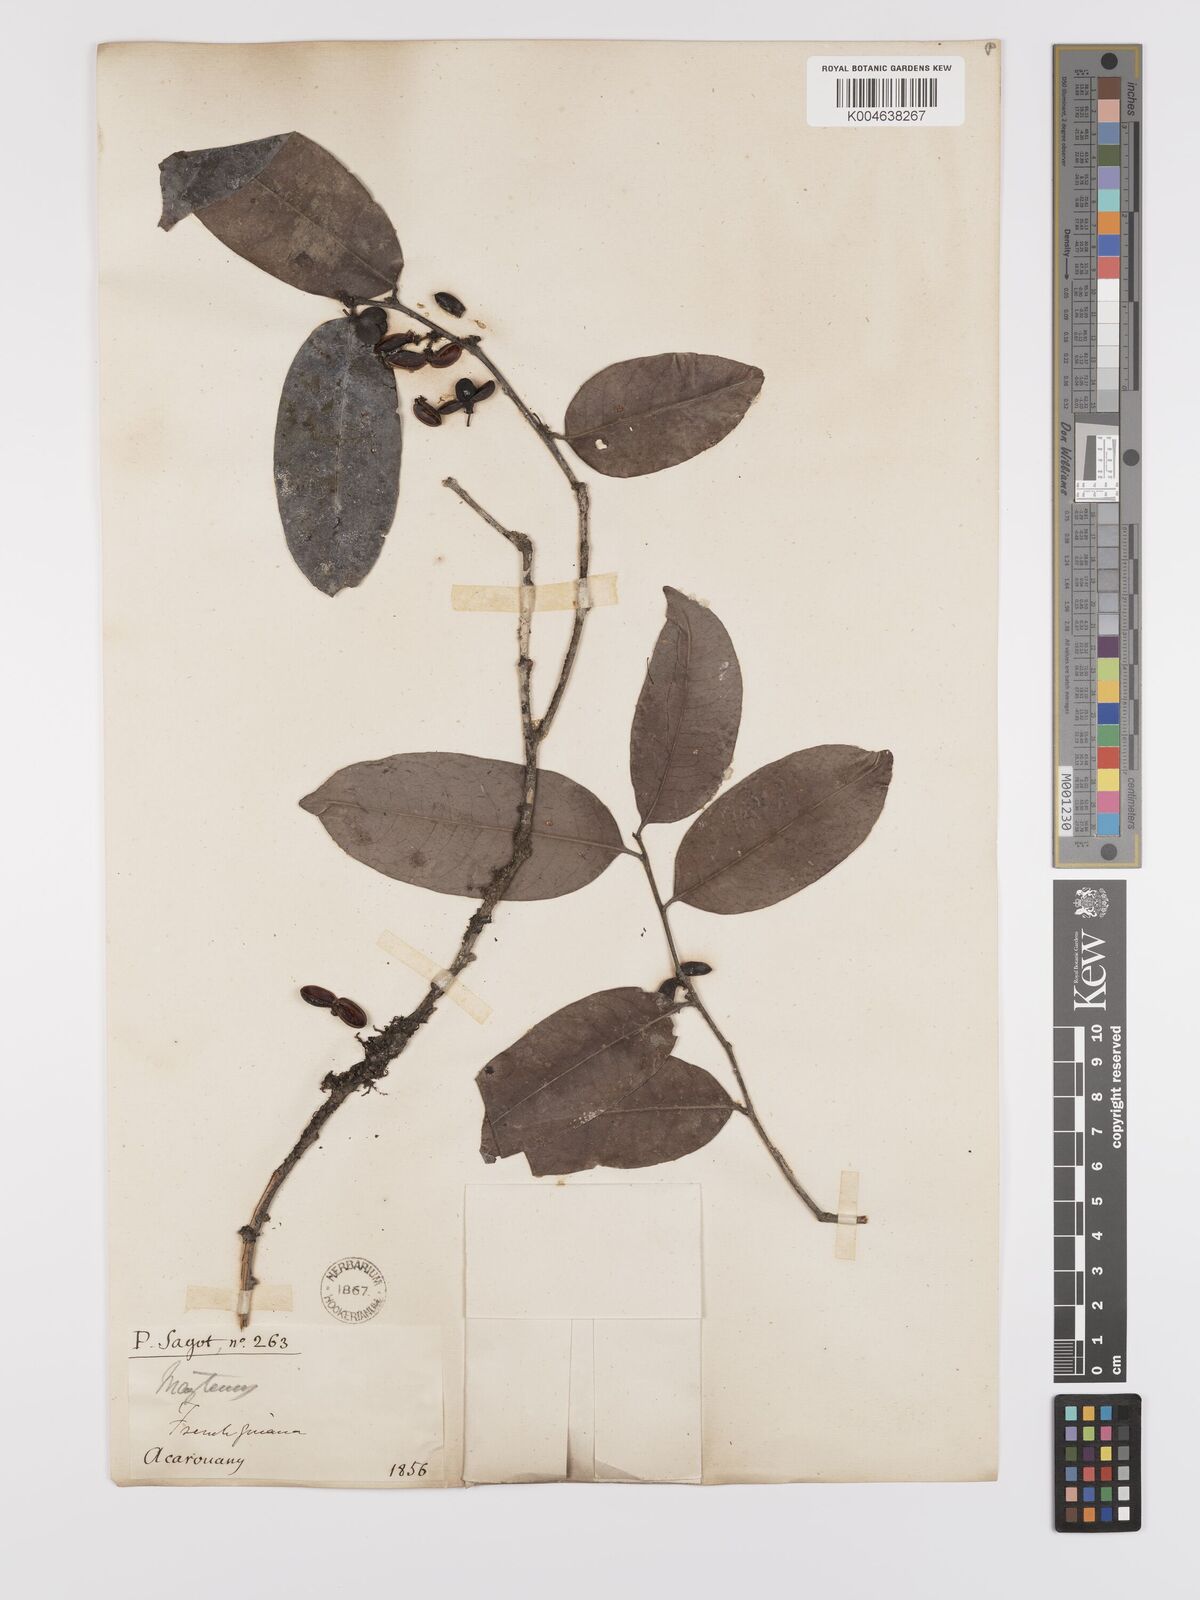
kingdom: Plantae
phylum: Tracheophyta
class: Magnoliopsida
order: Celastrales
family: Celastraceae
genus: Maytenus
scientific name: Maytenus
